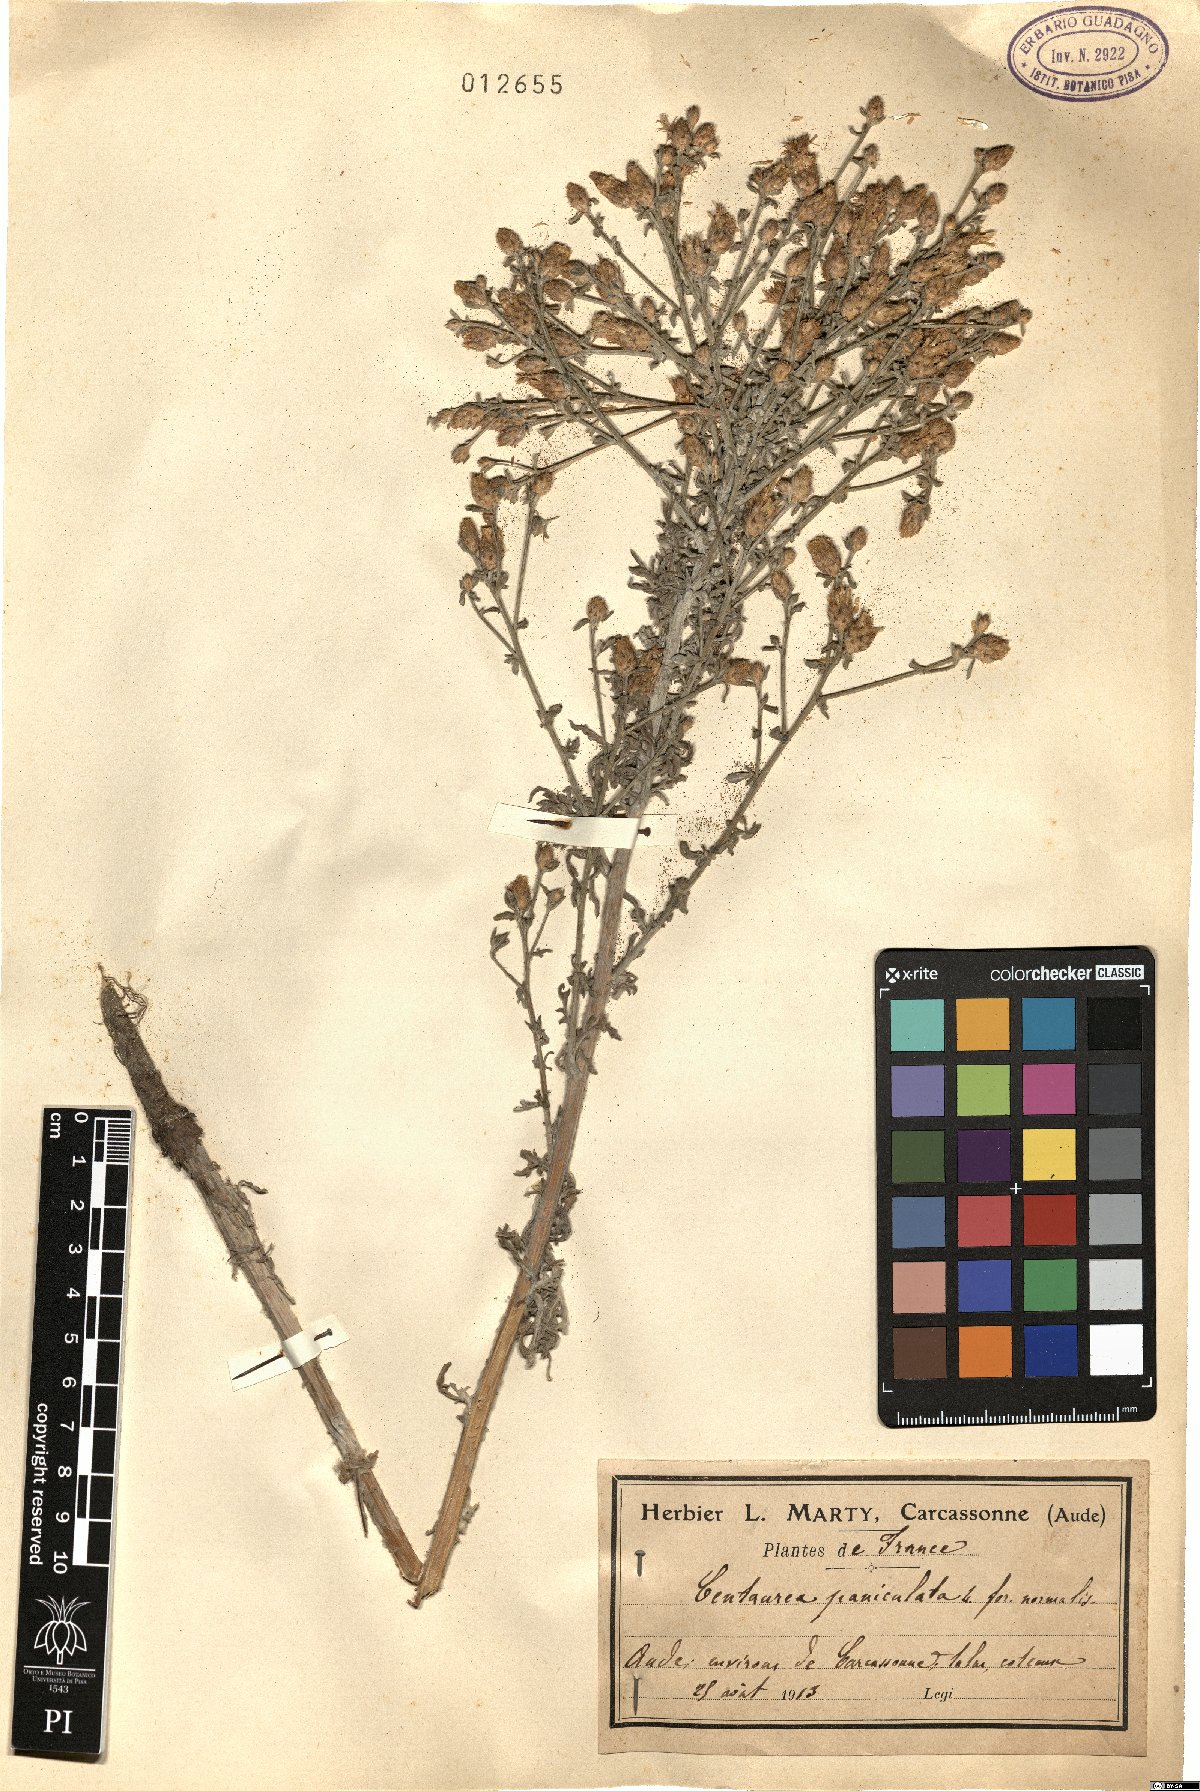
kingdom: Plantae
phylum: Tracheophyta
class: Magnoliopsida
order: Asterales
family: Asteraceae
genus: Centaurea
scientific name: Centaurea paniculata
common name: Jersey knapweed
